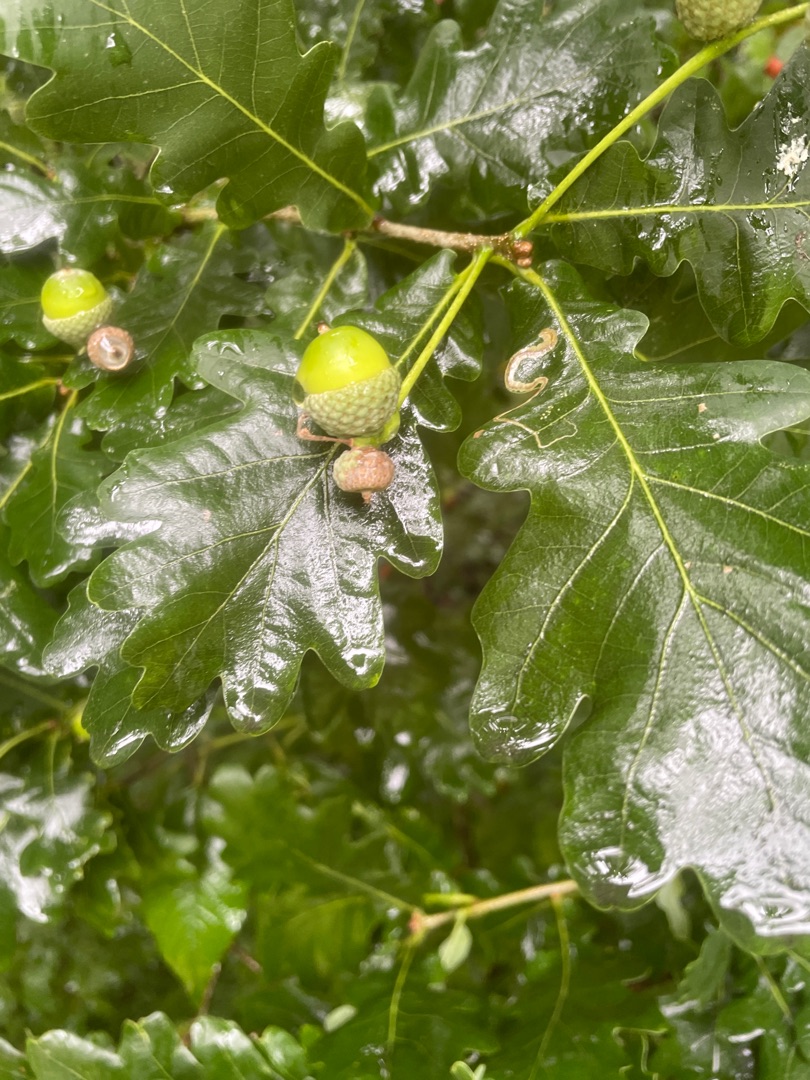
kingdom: Plantae
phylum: Tracheophyta
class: Magnoliopsida
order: Fagales
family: Fagaceae
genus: Quercus
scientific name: Quercus robur
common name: Stilk-eg/almindelig eg
